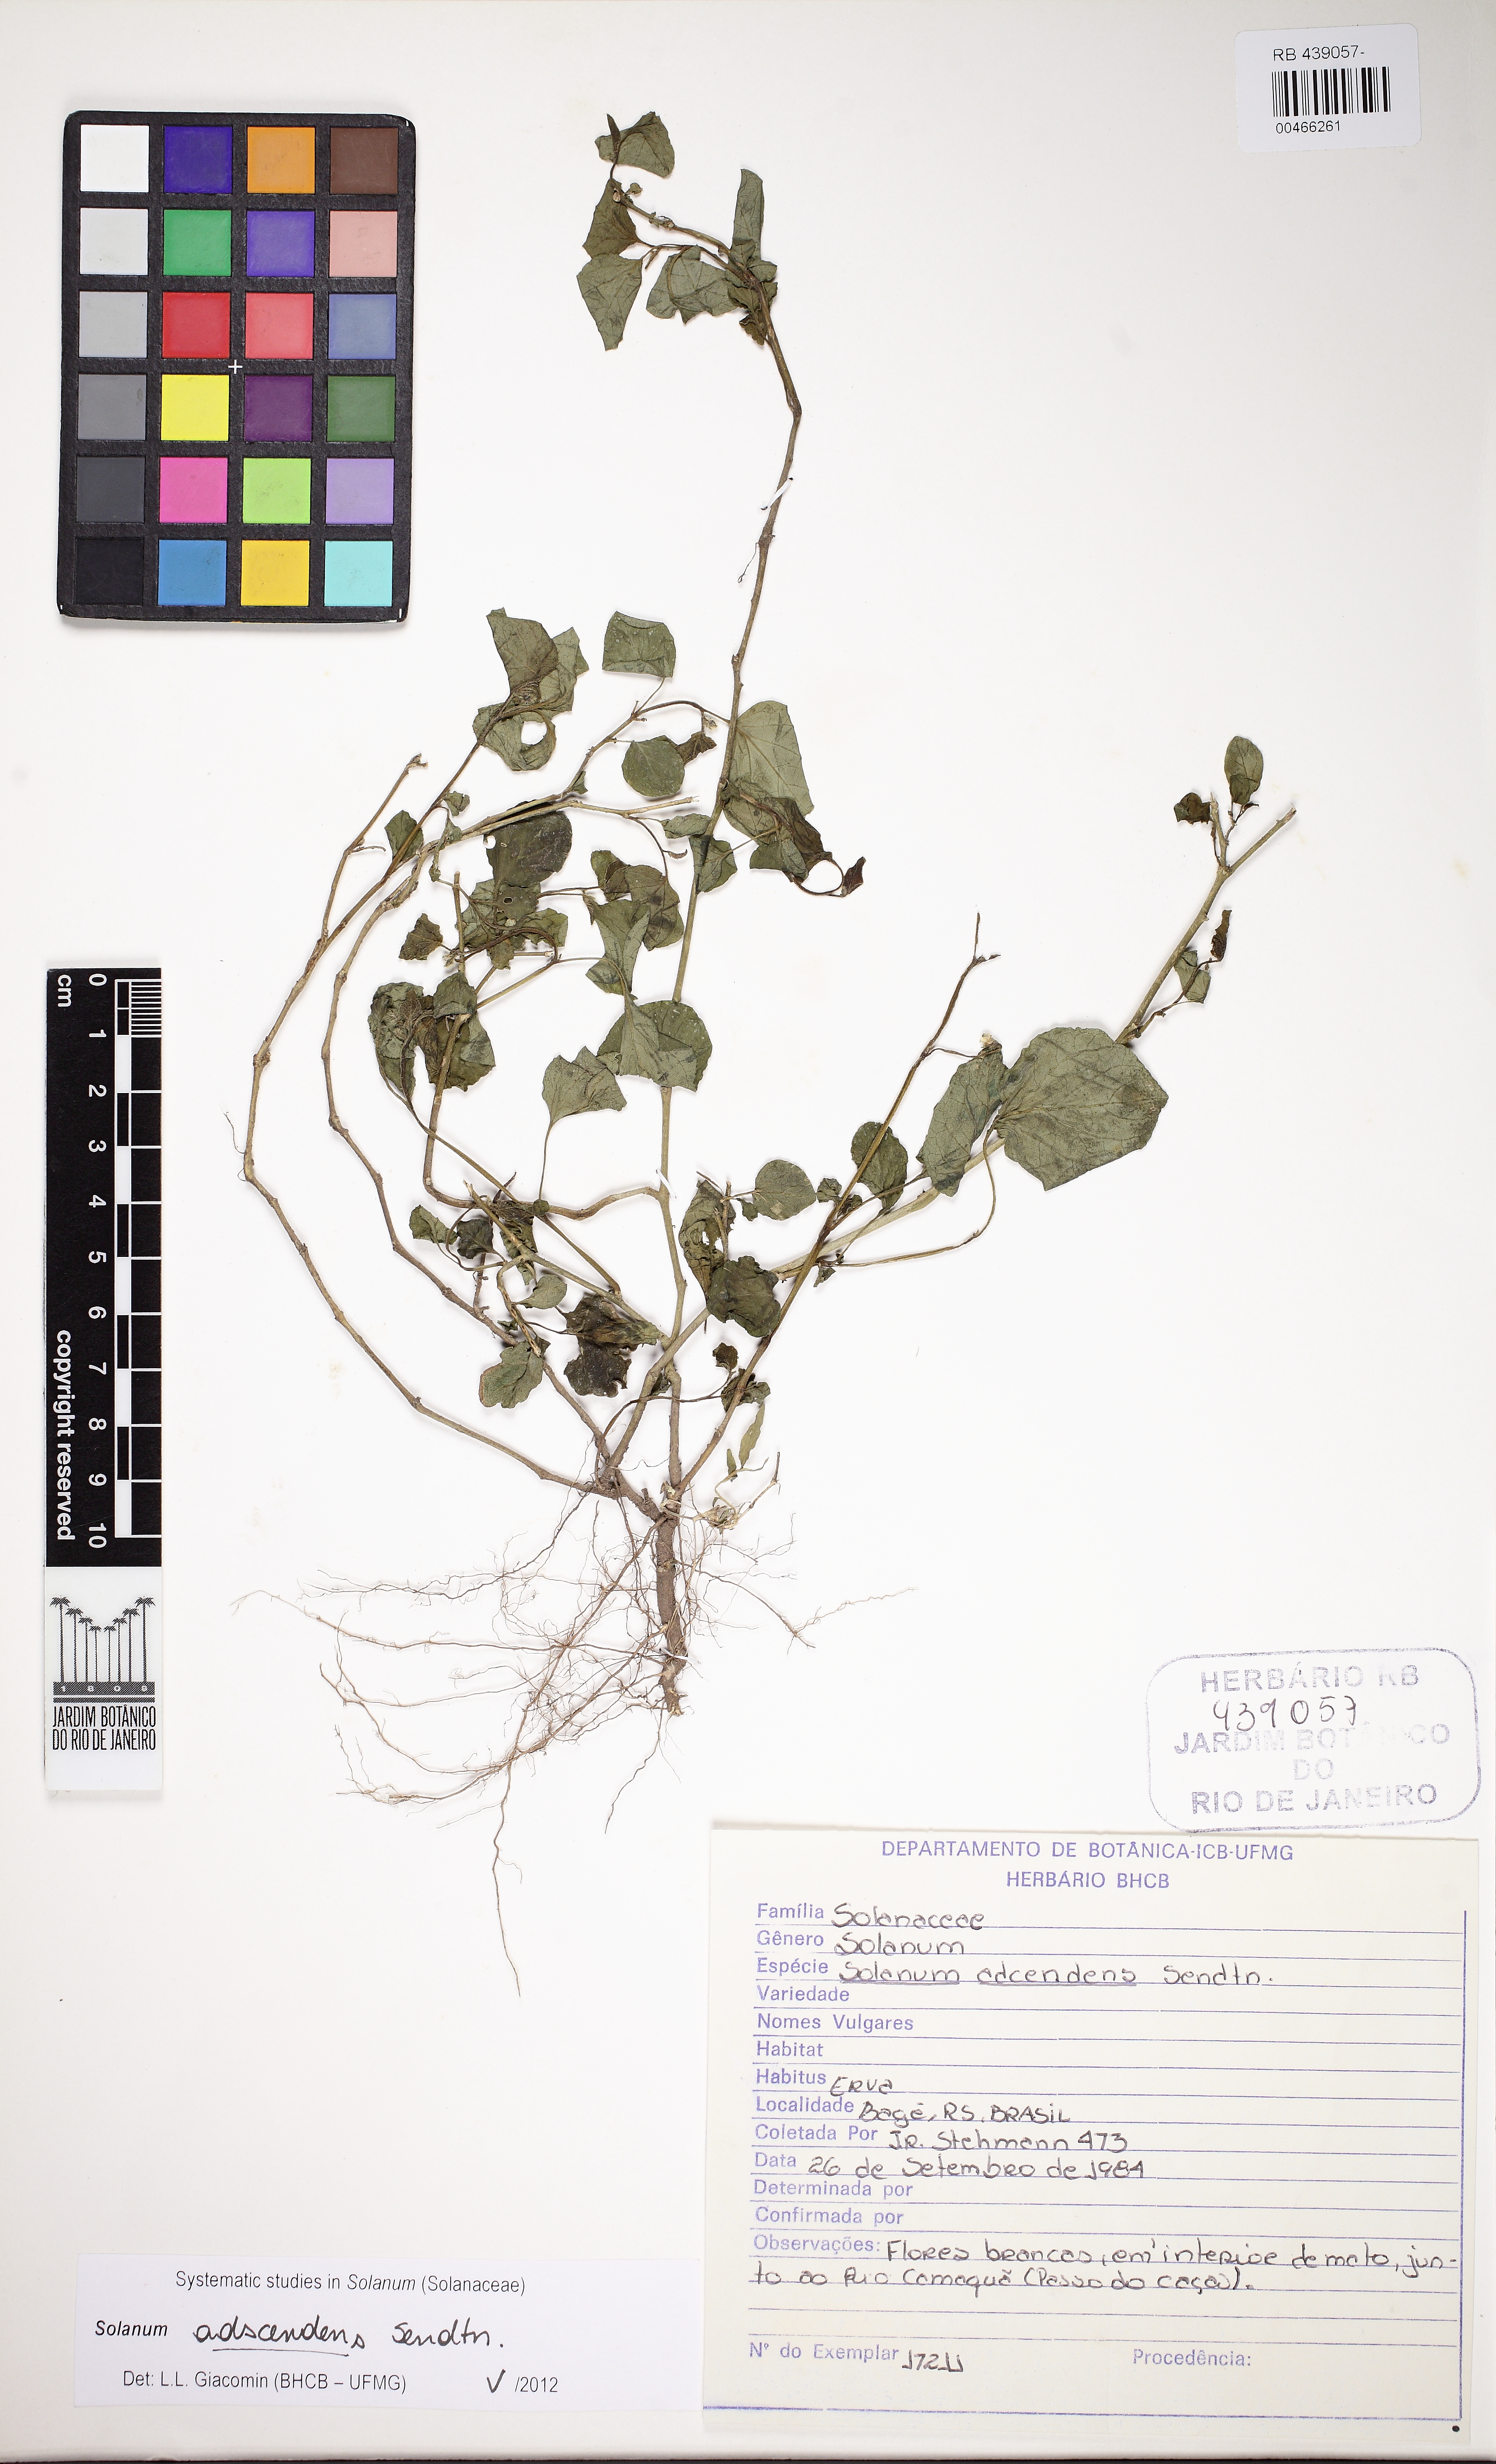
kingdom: Plantae
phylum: Tracheophyta
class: Magnoliopsida
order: Solanales
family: Solanaceae
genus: Solanum
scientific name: Solanum adscendens
